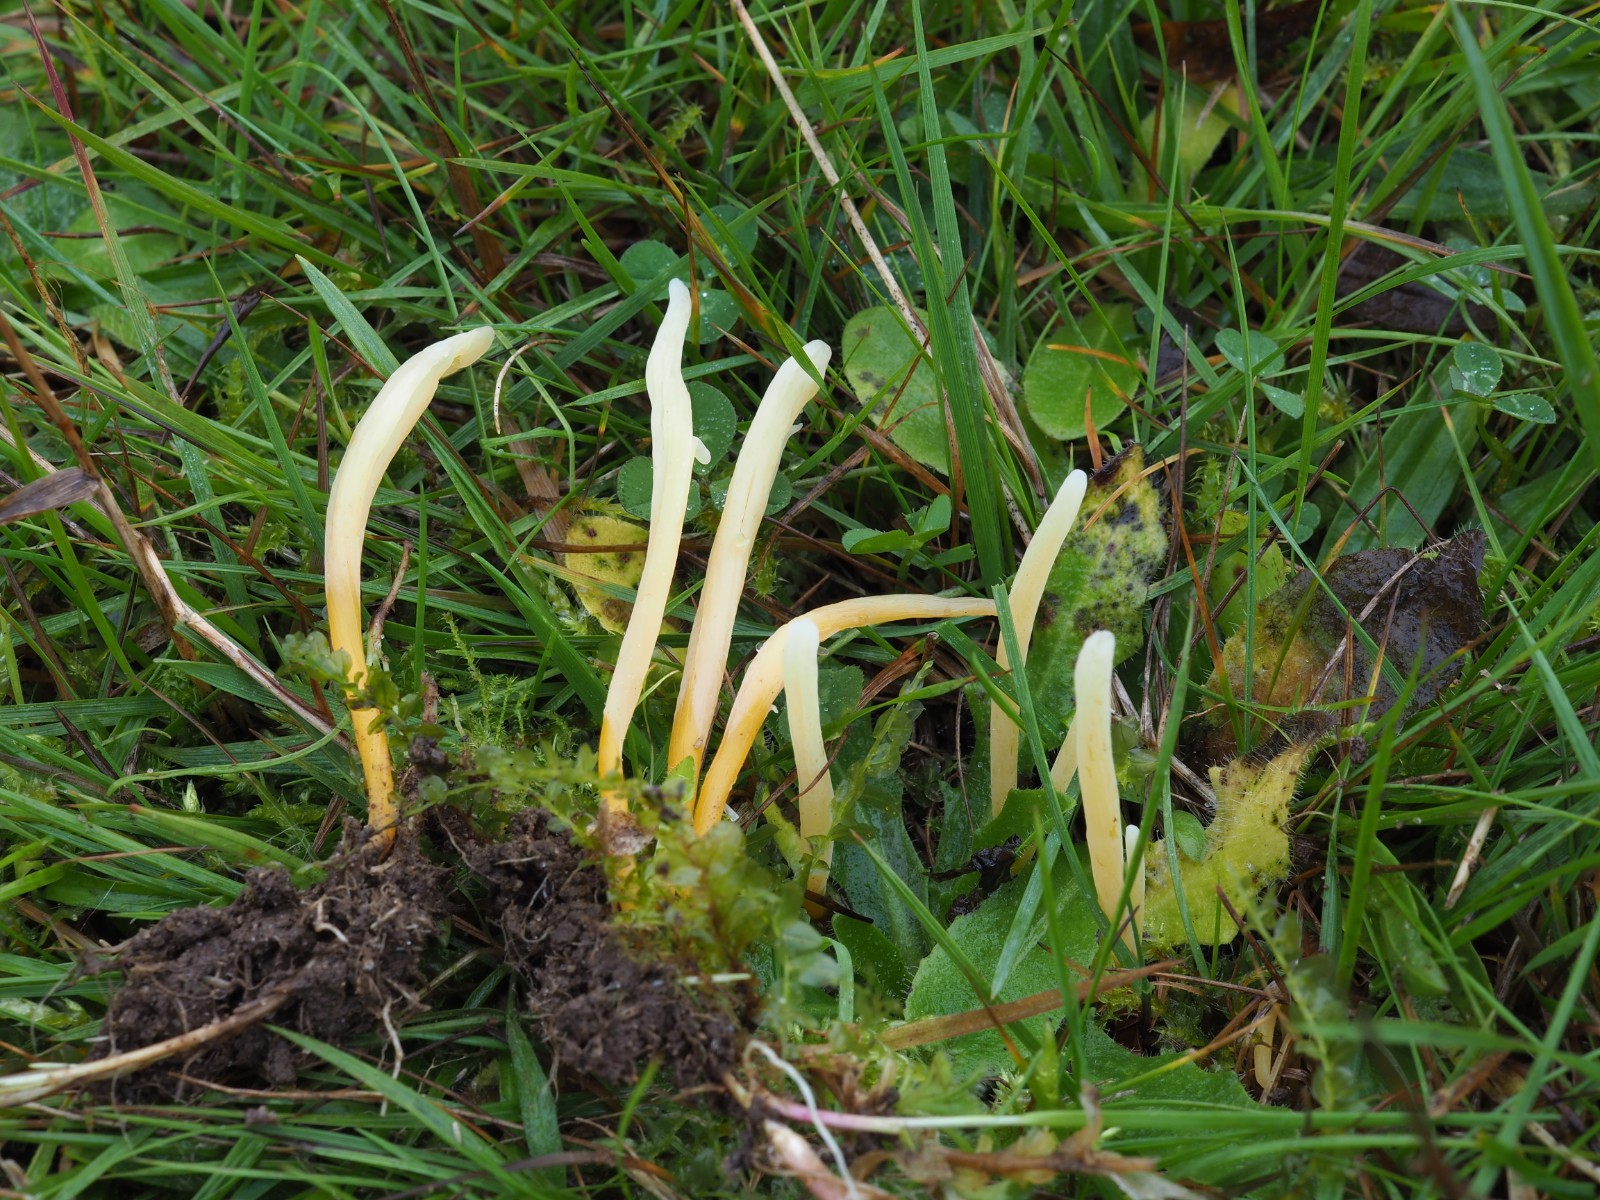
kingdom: Fungi
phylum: Basidiomycota
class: Agaricomycetes
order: Agaricales
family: Clavariaceae
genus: Clavaria
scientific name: Clavaria flavipes
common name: strågul køllesvamp
